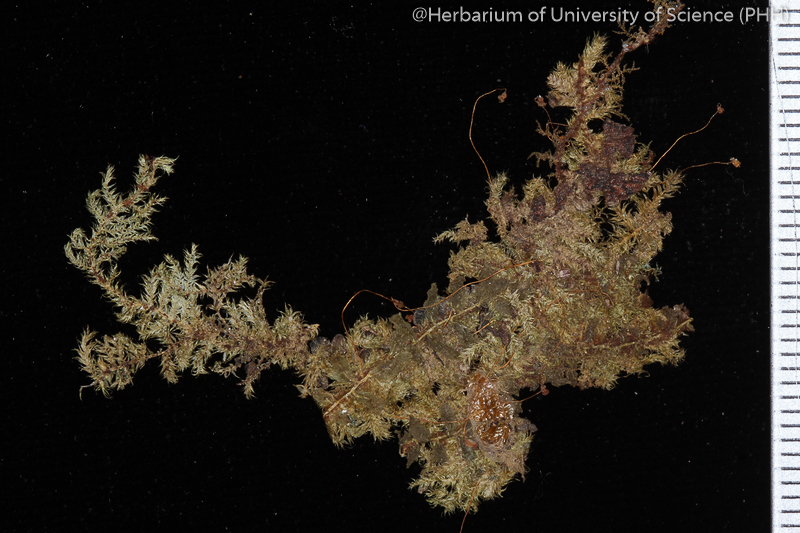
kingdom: Plantae
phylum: Bryophyta
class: Bryopsida
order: Hypnales
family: Hypnaceae
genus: Vesicularia
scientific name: Vesicularia tonkinensis
